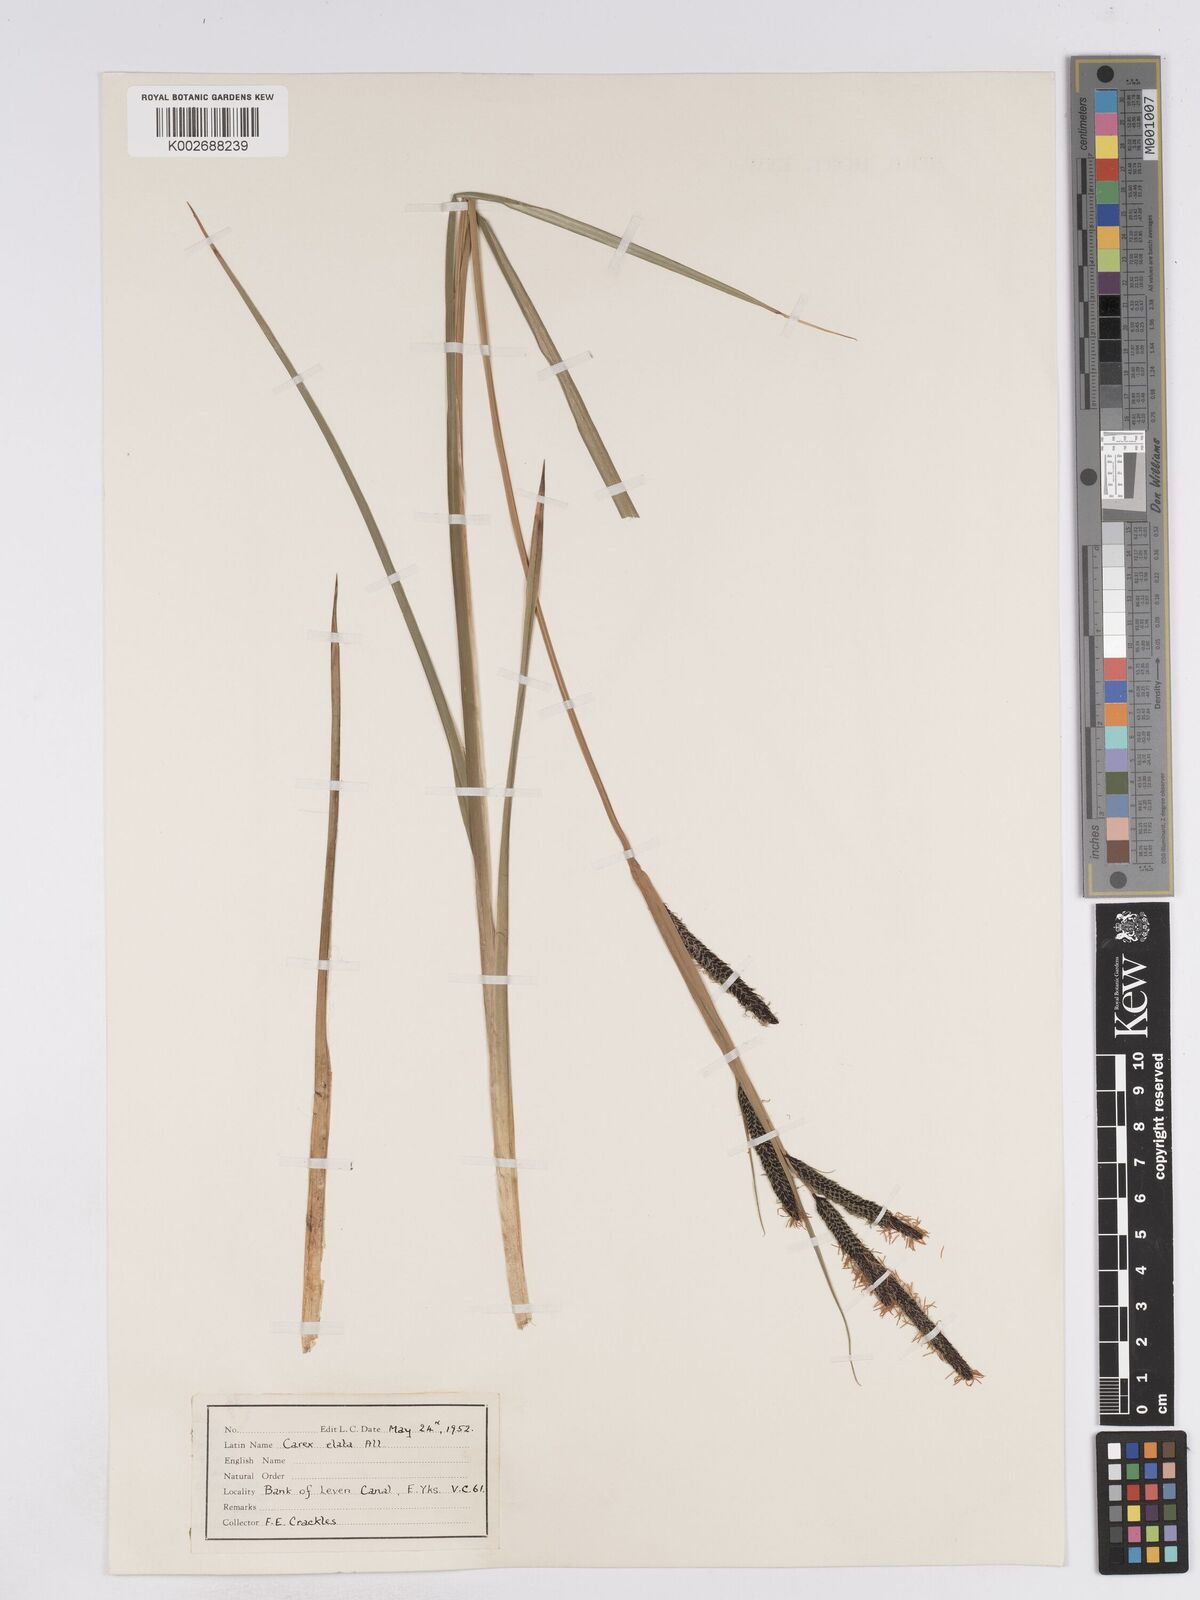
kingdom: Plantae
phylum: Tracheophyta
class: Liliopsida
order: Poales
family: Cyperaceae
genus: Carex
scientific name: Carex elata
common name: Tufted sedge
